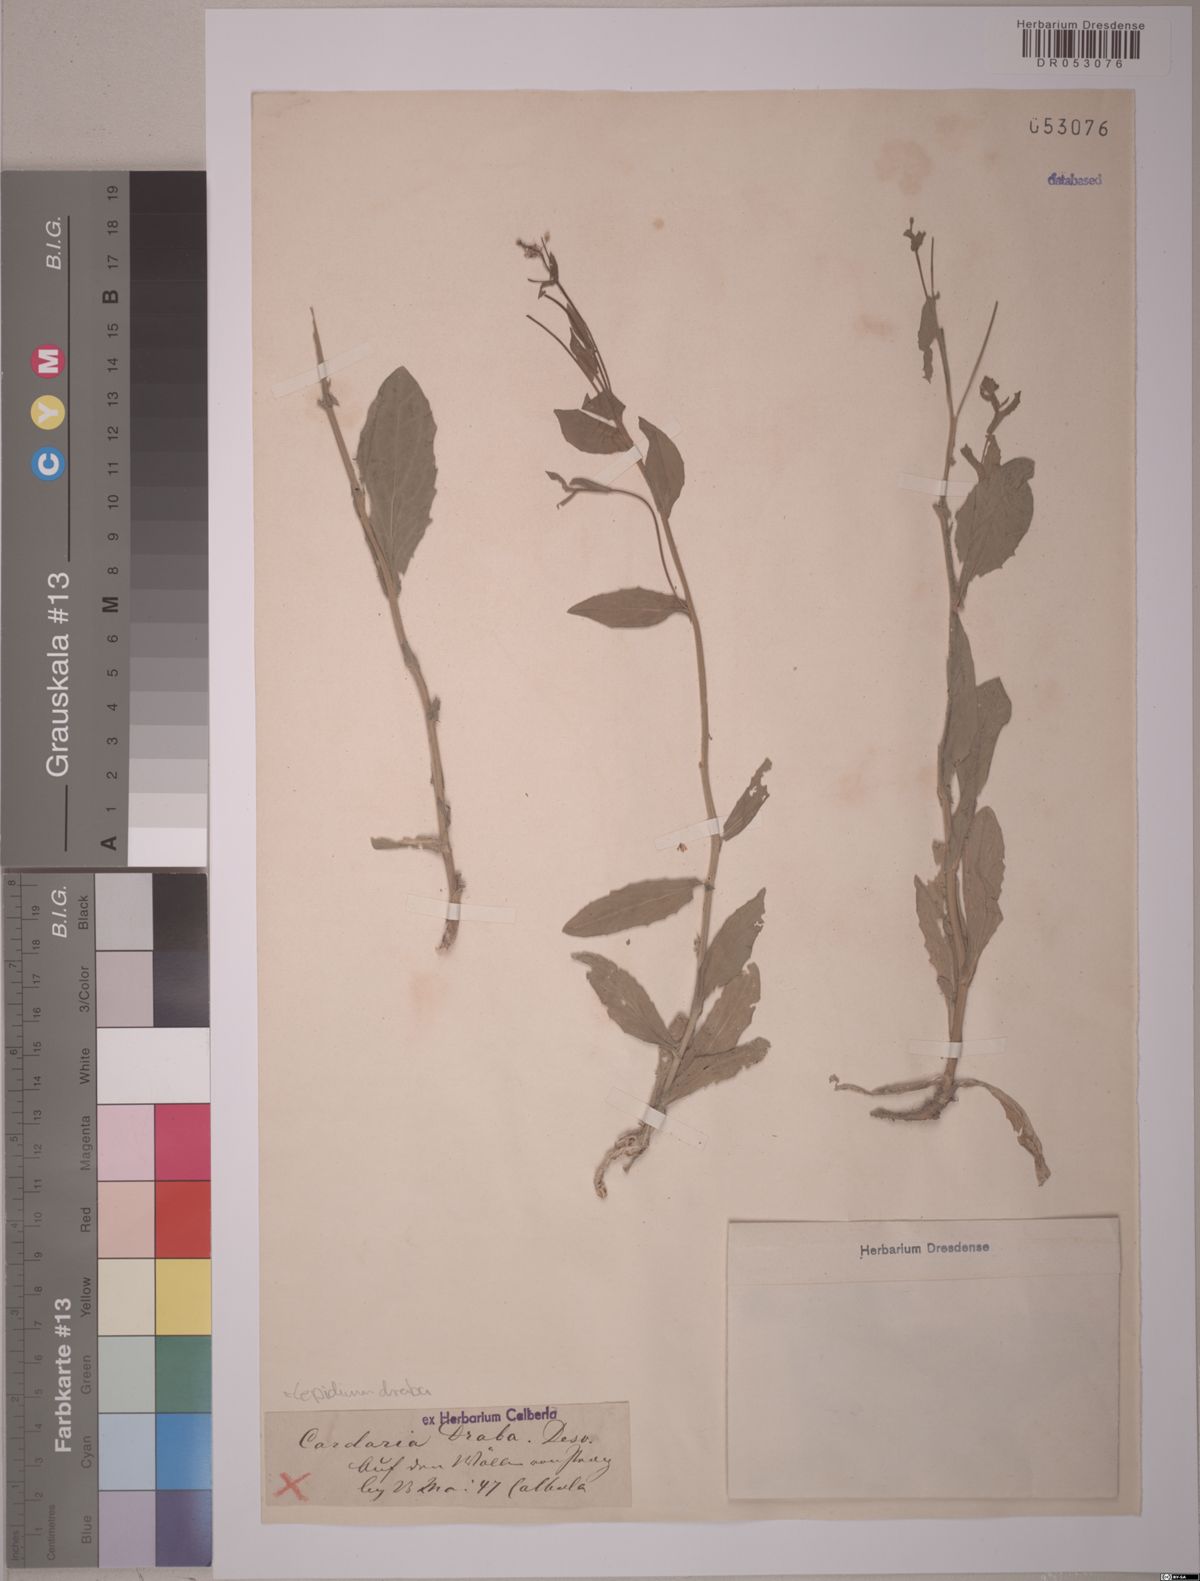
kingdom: Plantae
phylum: Tracheophyta
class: Magnoliopsida
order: Brassicales
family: Brassicaceae
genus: Lepidium
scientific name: Lepidium draba
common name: Hoary cress
